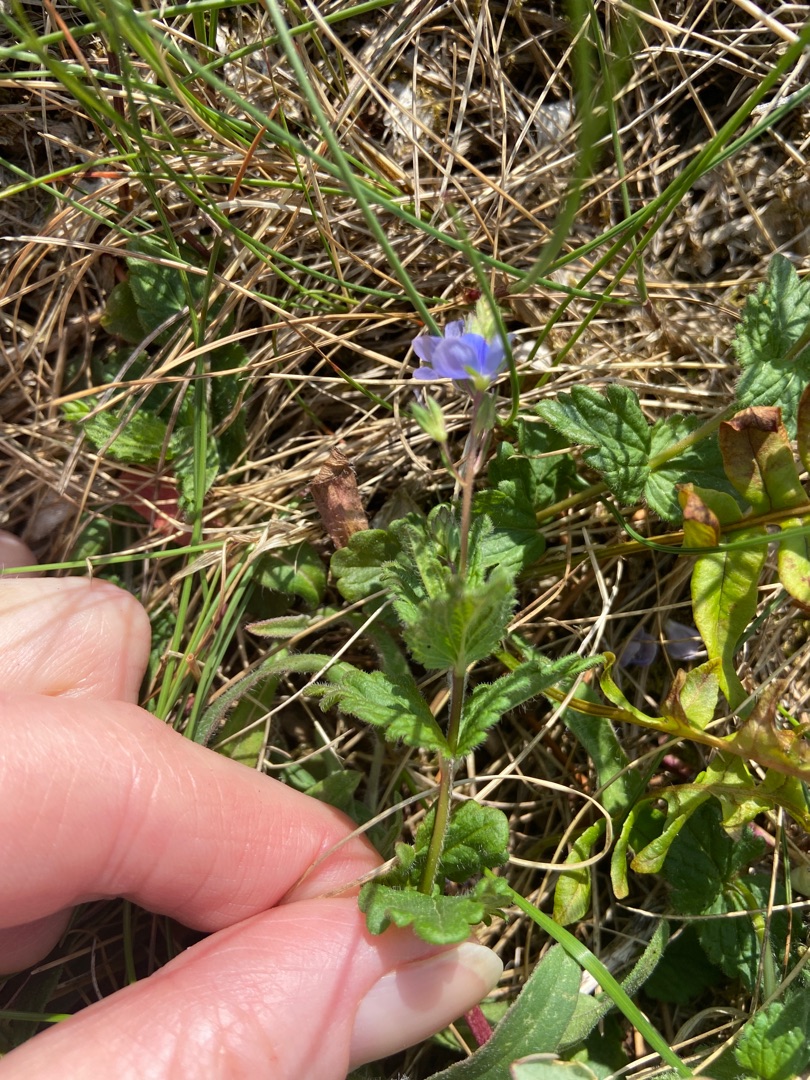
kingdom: Plantae
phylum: Tracheophyta
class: Magnoliopsida
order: Lamiales
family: Plantaginaceae
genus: Veronica
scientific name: Veronica chamaedrys
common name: Tveskægget ærenpris
